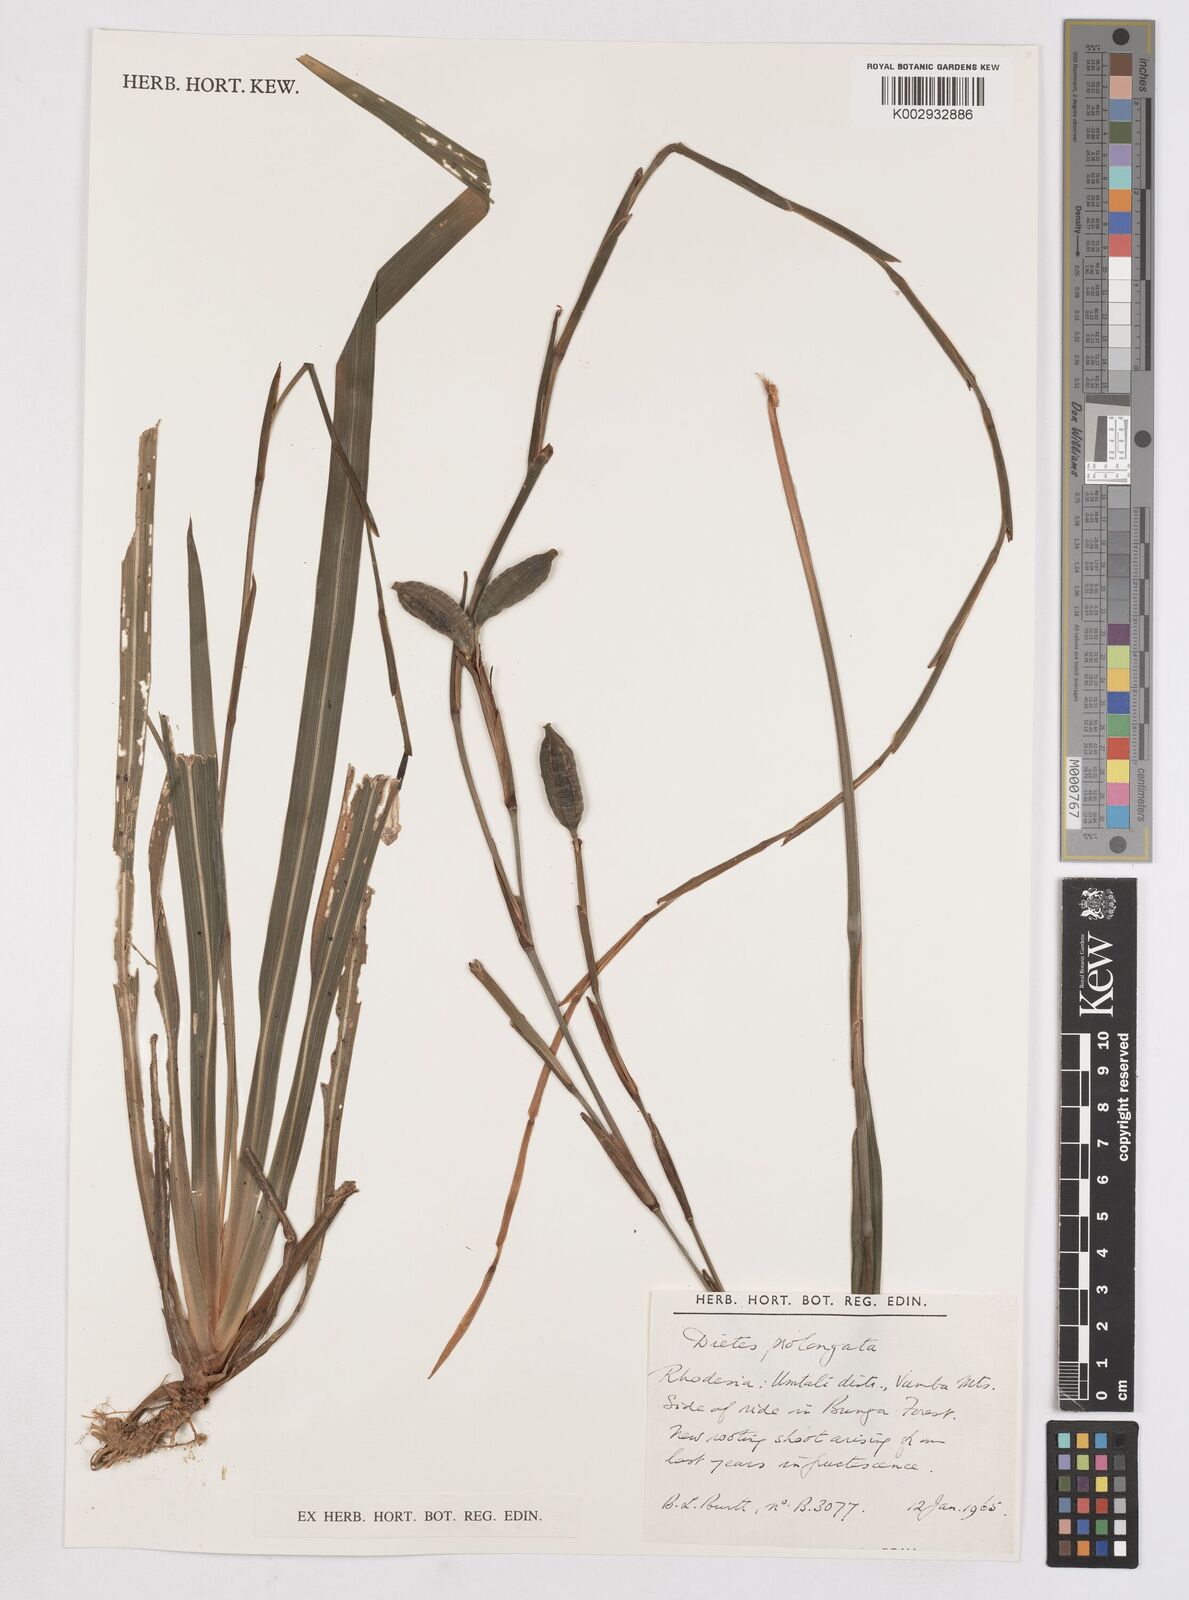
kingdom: Plantae
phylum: Tracheophyta
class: Liliopsida
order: Asparagales
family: Iridaceae
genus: Dietes
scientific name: Dietes iridioides
